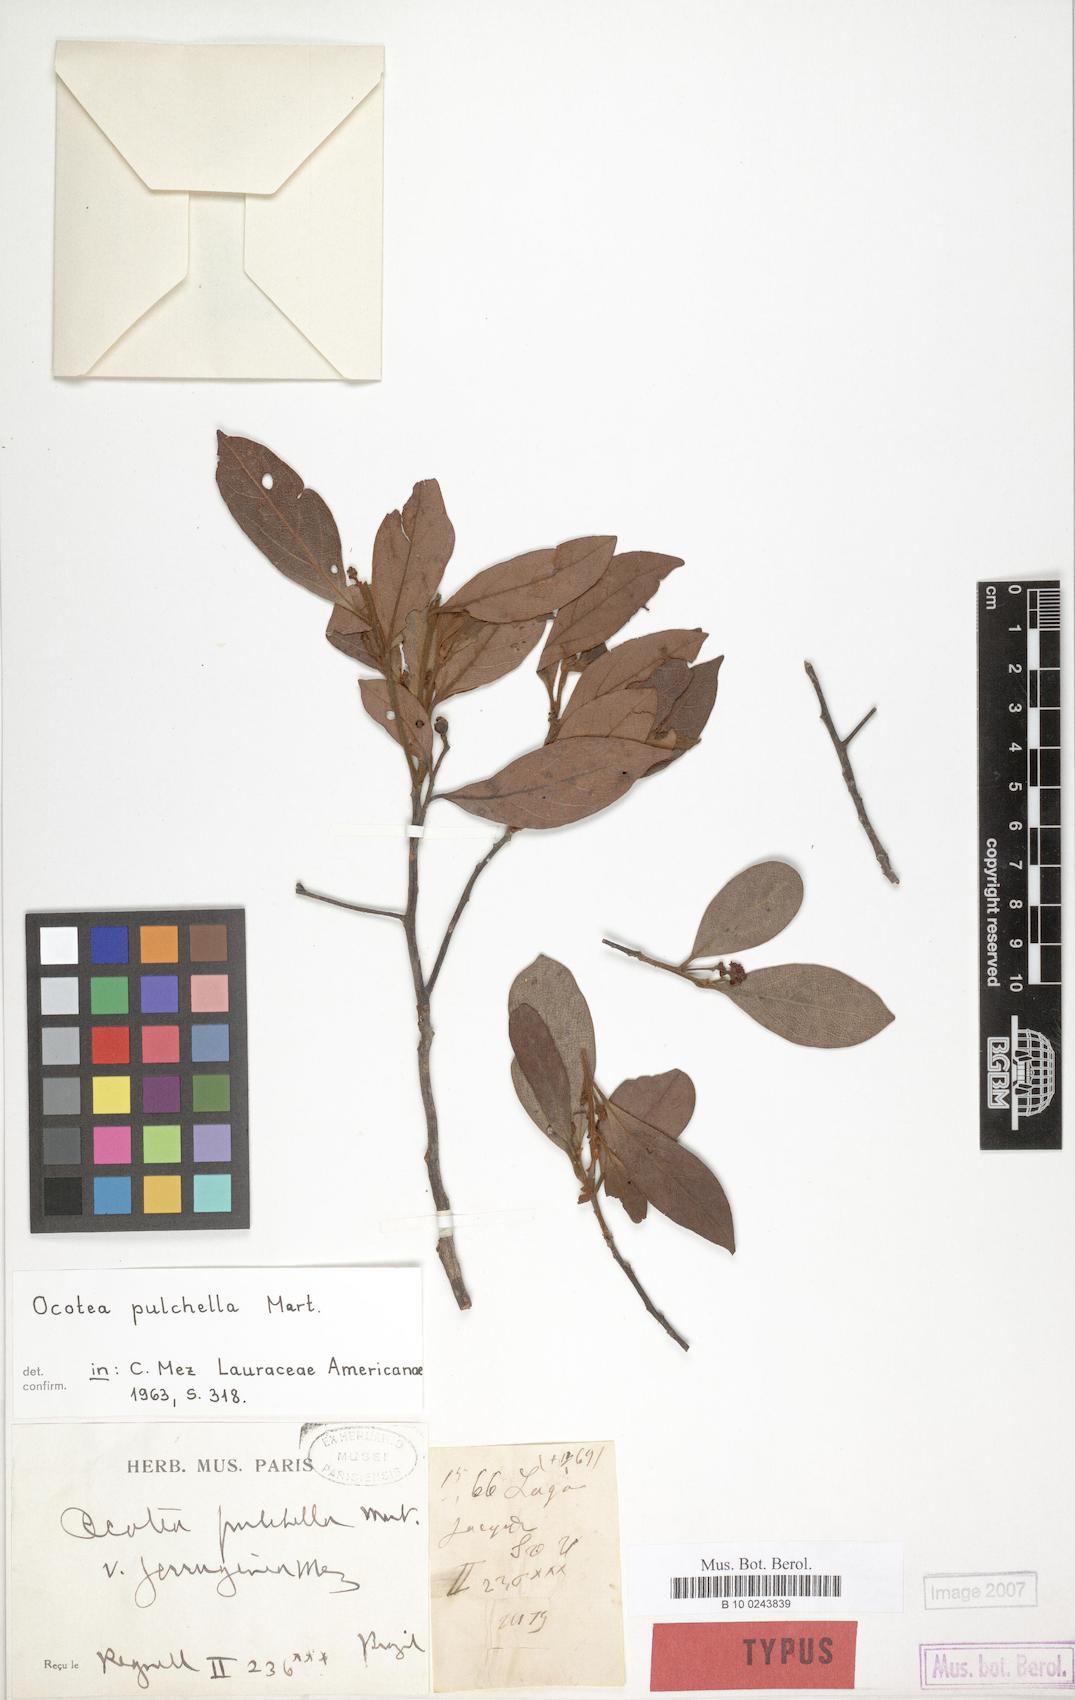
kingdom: Plantae
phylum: Tracheophyta
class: Magnoliopsida
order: Laurales
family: Lauraceae
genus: Mespilodaphne
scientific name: Mespilodaphne pulchella
